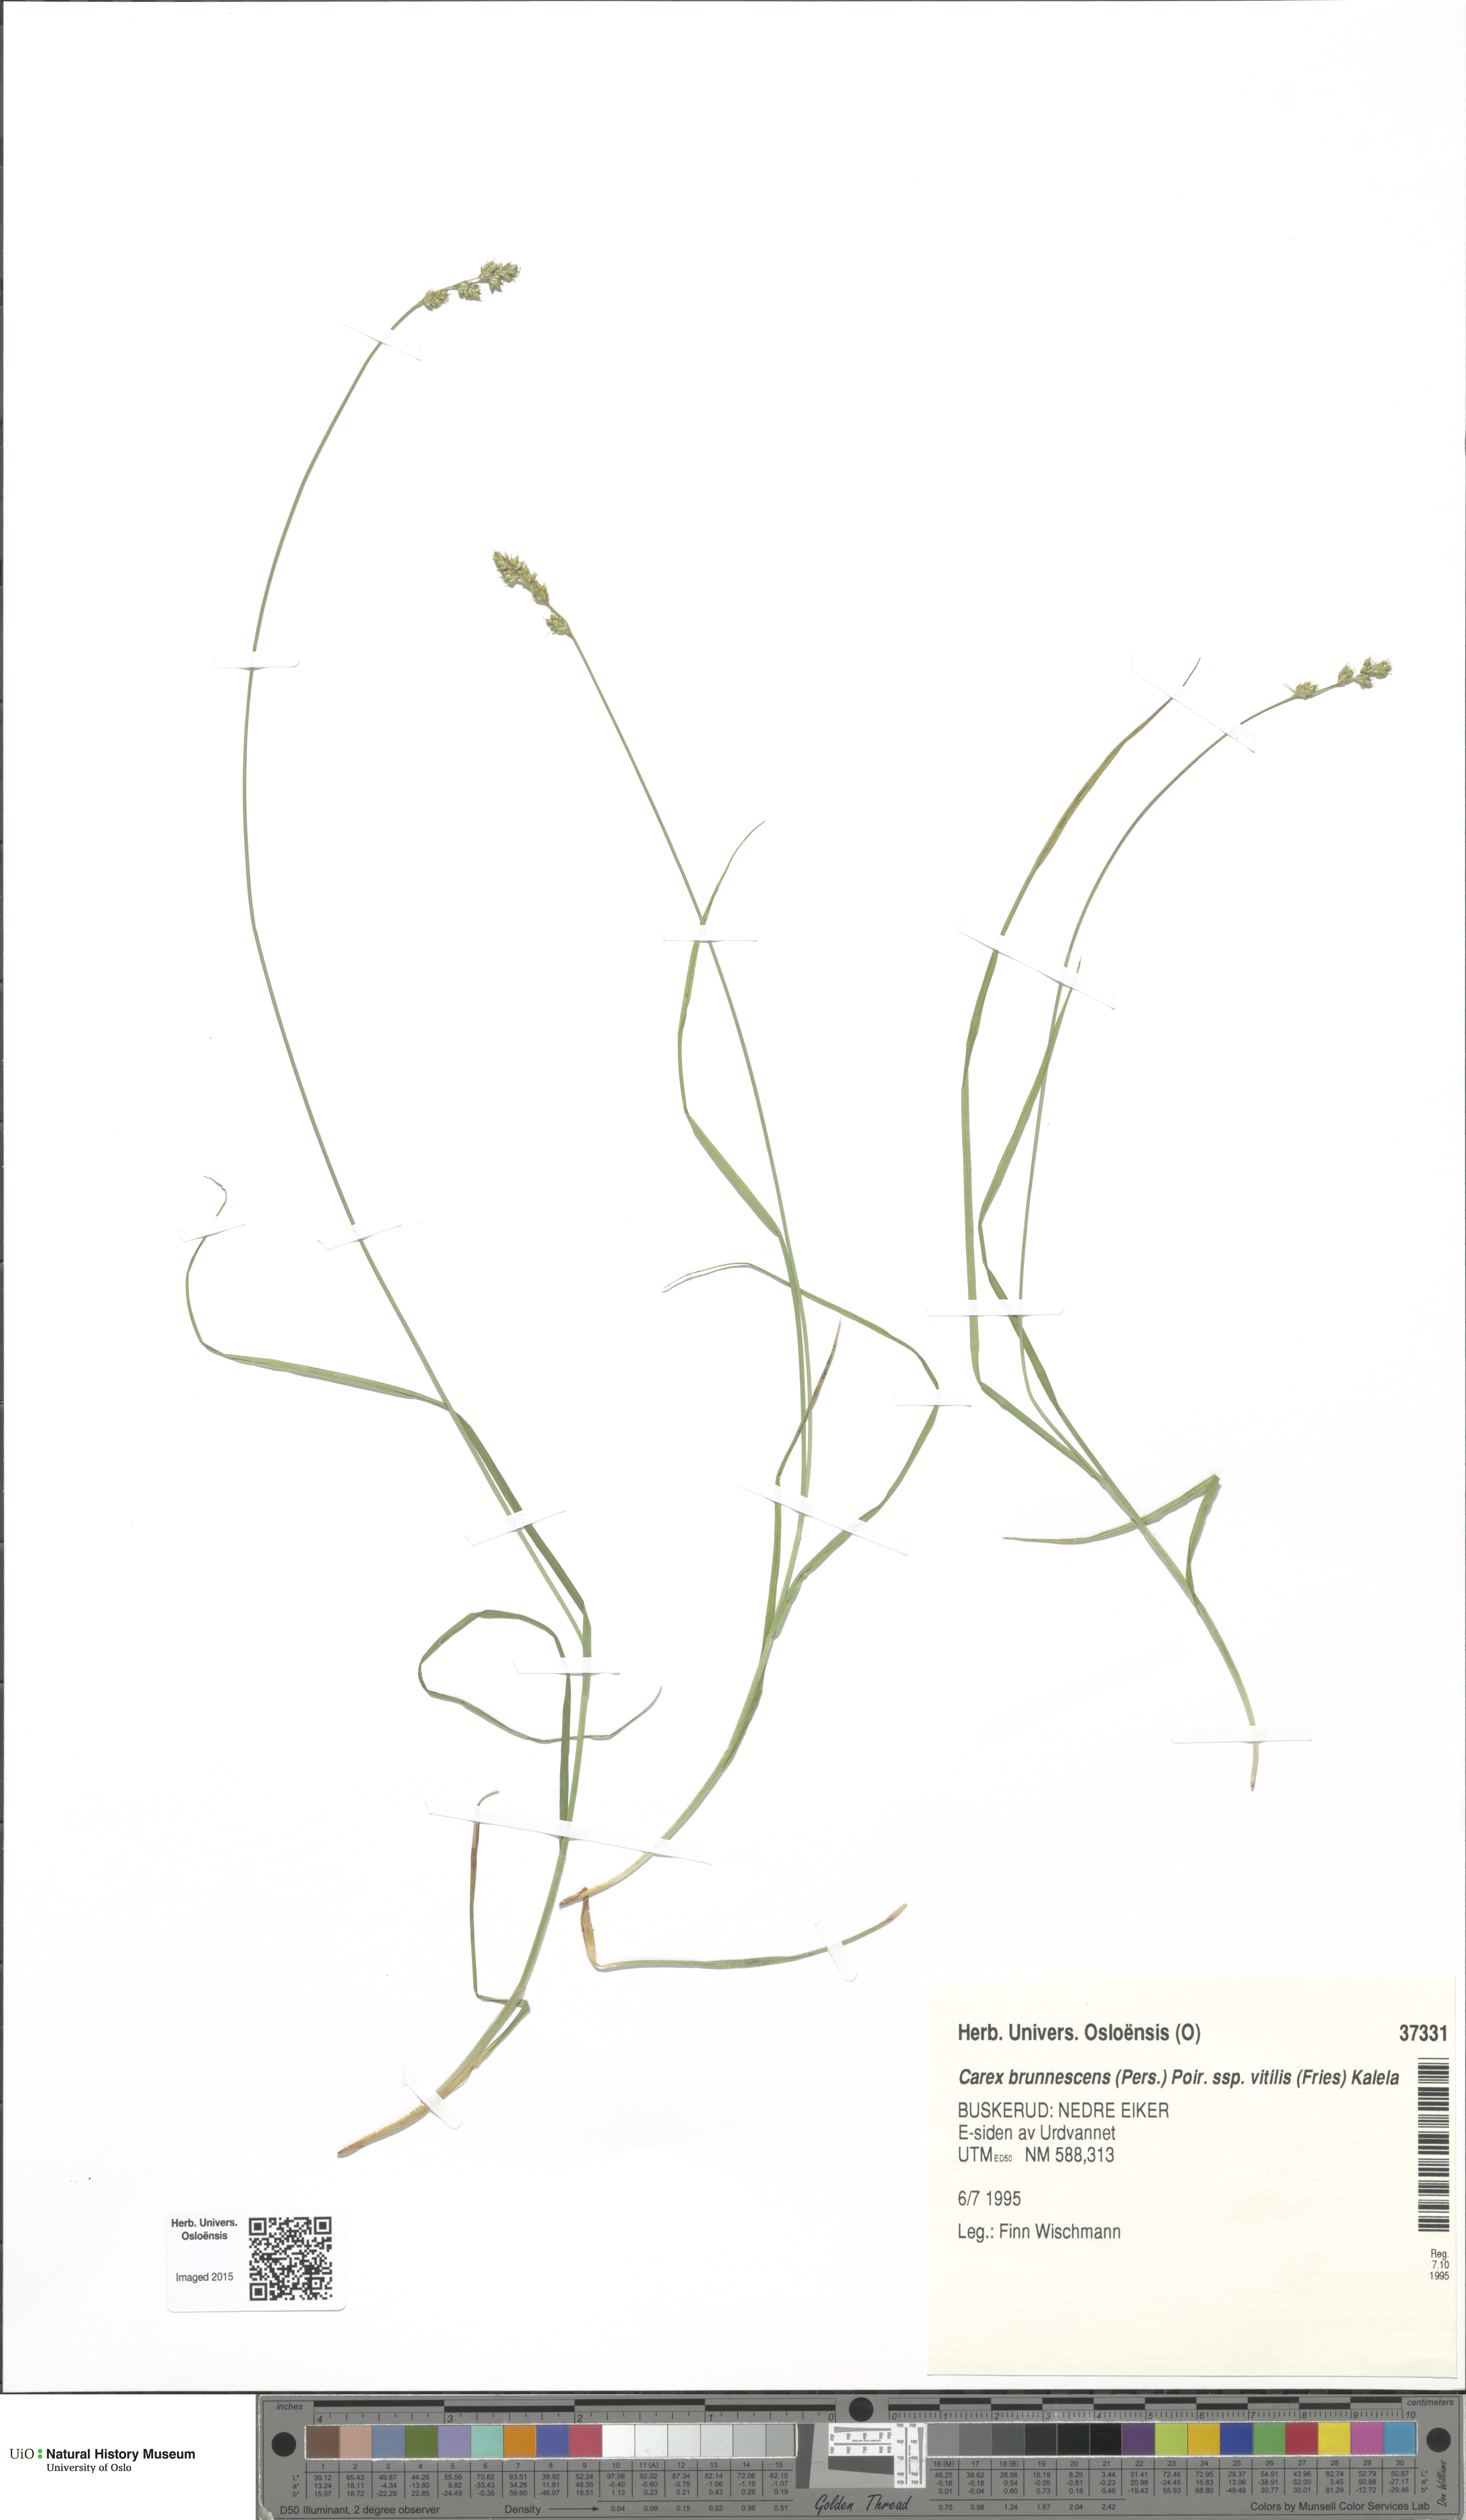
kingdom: Plantae
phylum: Tracheophyta
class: Liliopsida
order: Poales
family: Cyperaceae
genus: Carex
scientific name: Carex brunnescens
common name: Brown sedge
